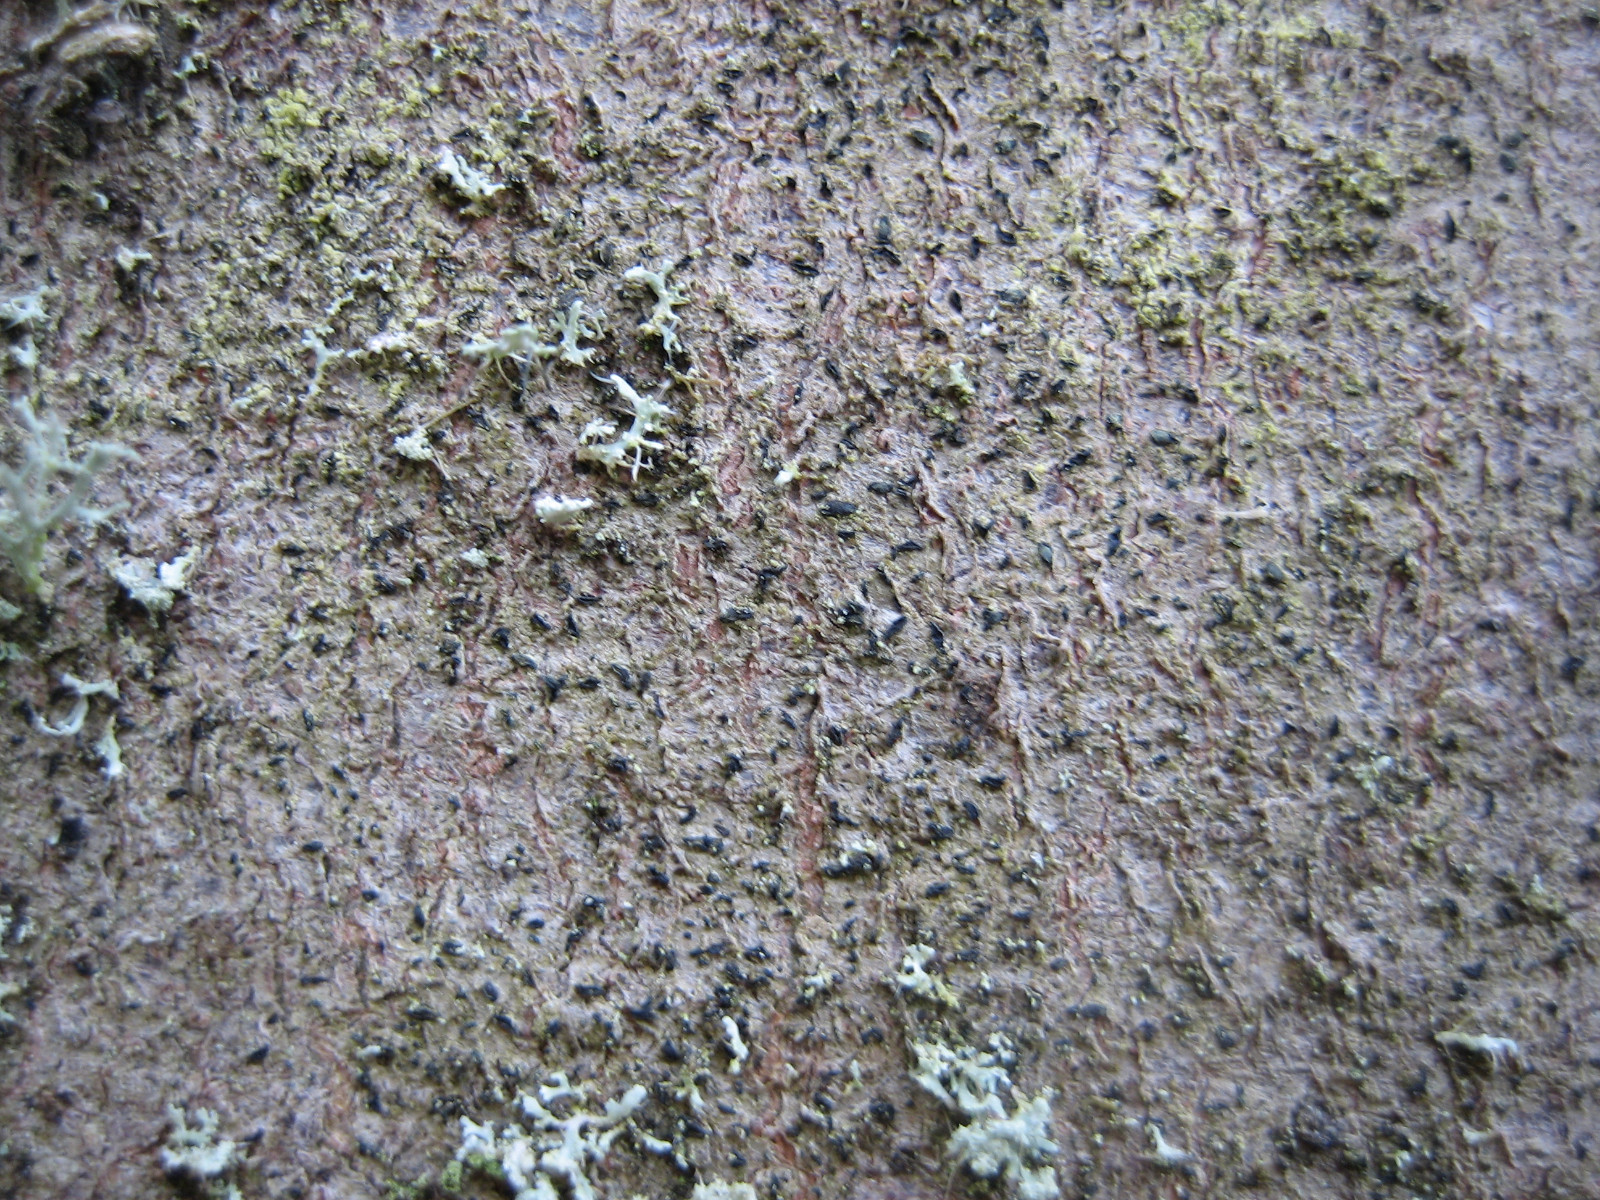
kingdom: Fungi
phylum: Ascomycota
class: Arthoniomycetes
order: Arthoniales
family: Lecanographaceae
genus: Alyxoria
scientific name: Alyxoria varia
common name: almindelig bogstavlav
